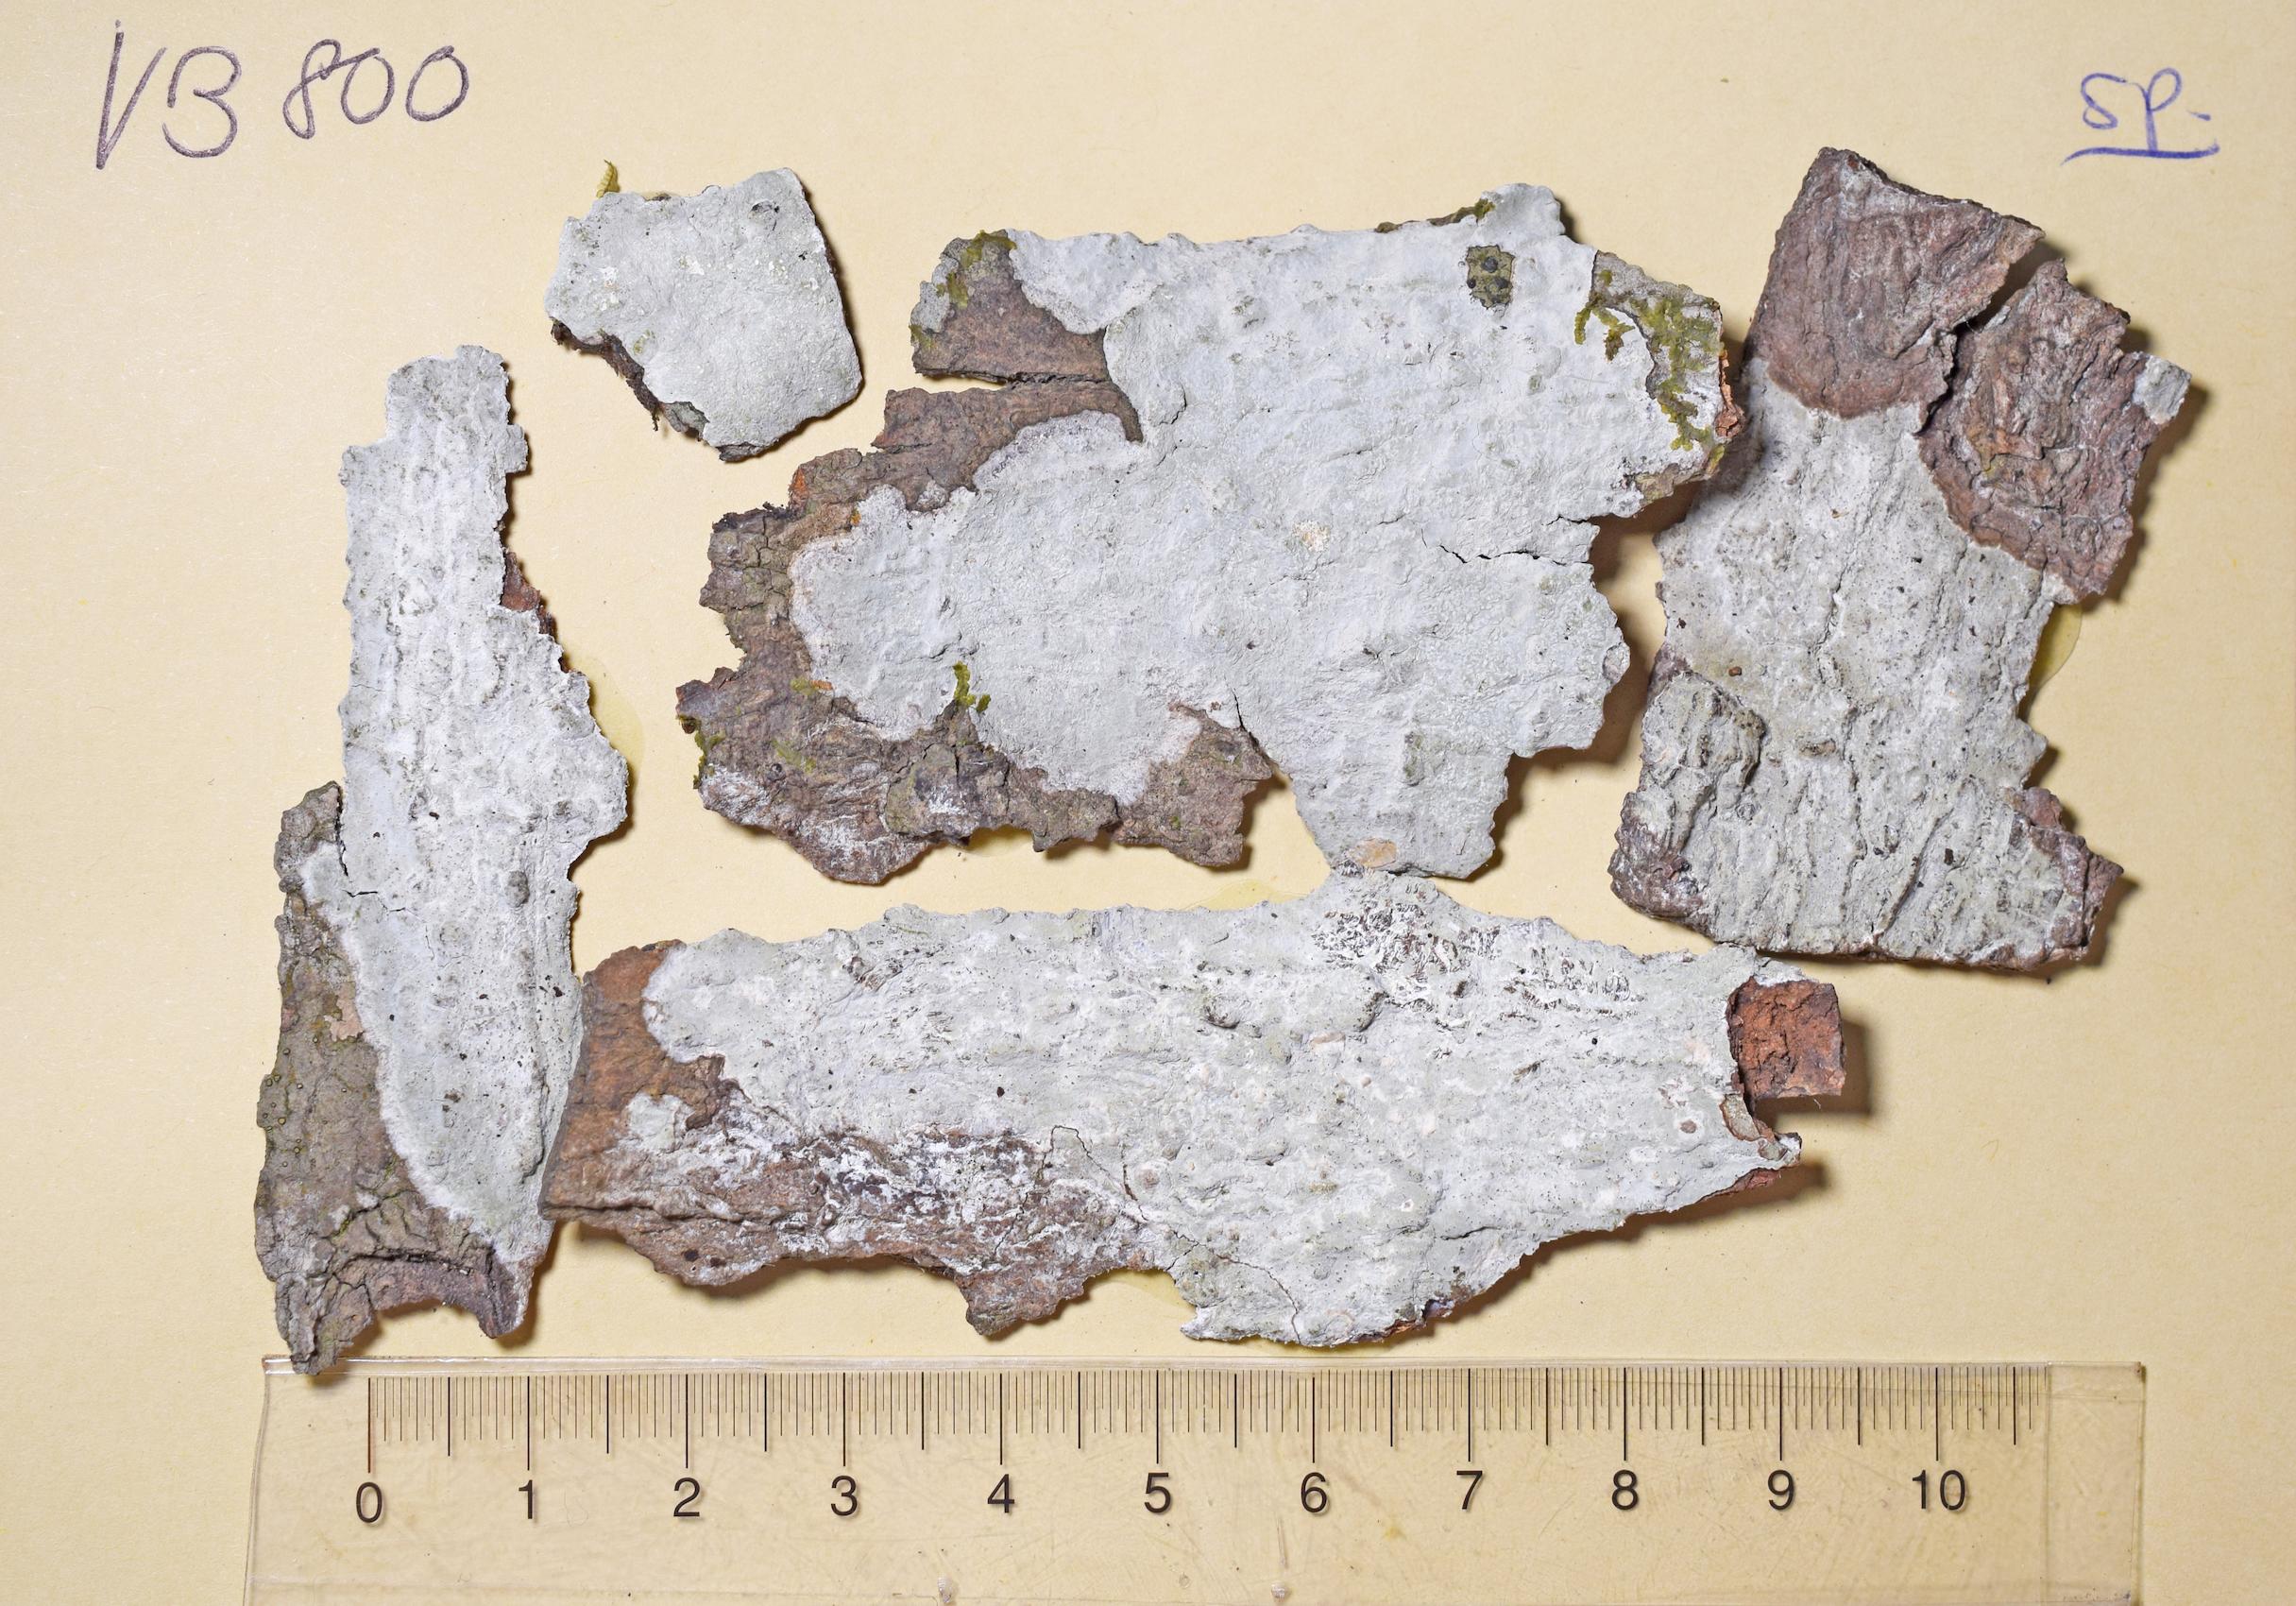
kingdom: Fungi
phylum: Ascomycota
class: Arthoniomycetes
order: Arthoniales
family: Arthoniaceae
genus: Cryptothecia
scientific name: Cryptothecia
